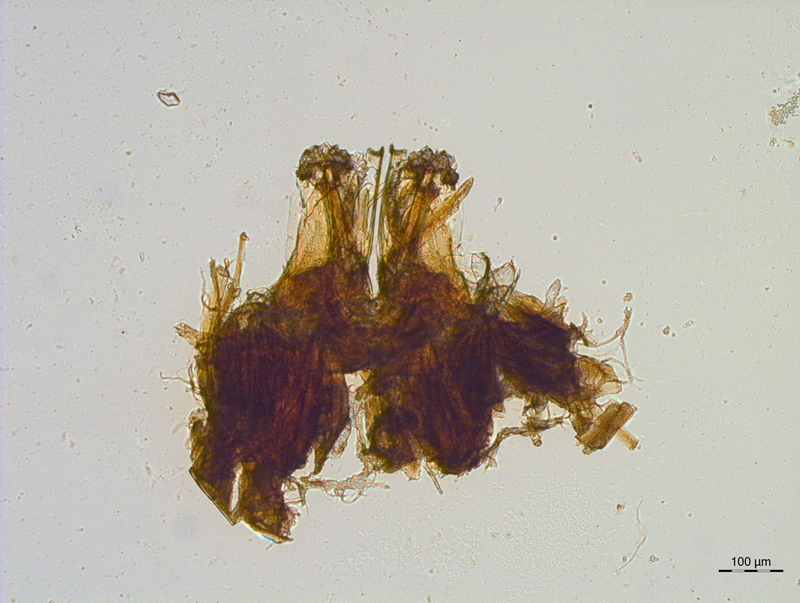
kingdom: Animalia
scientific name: Animalia
